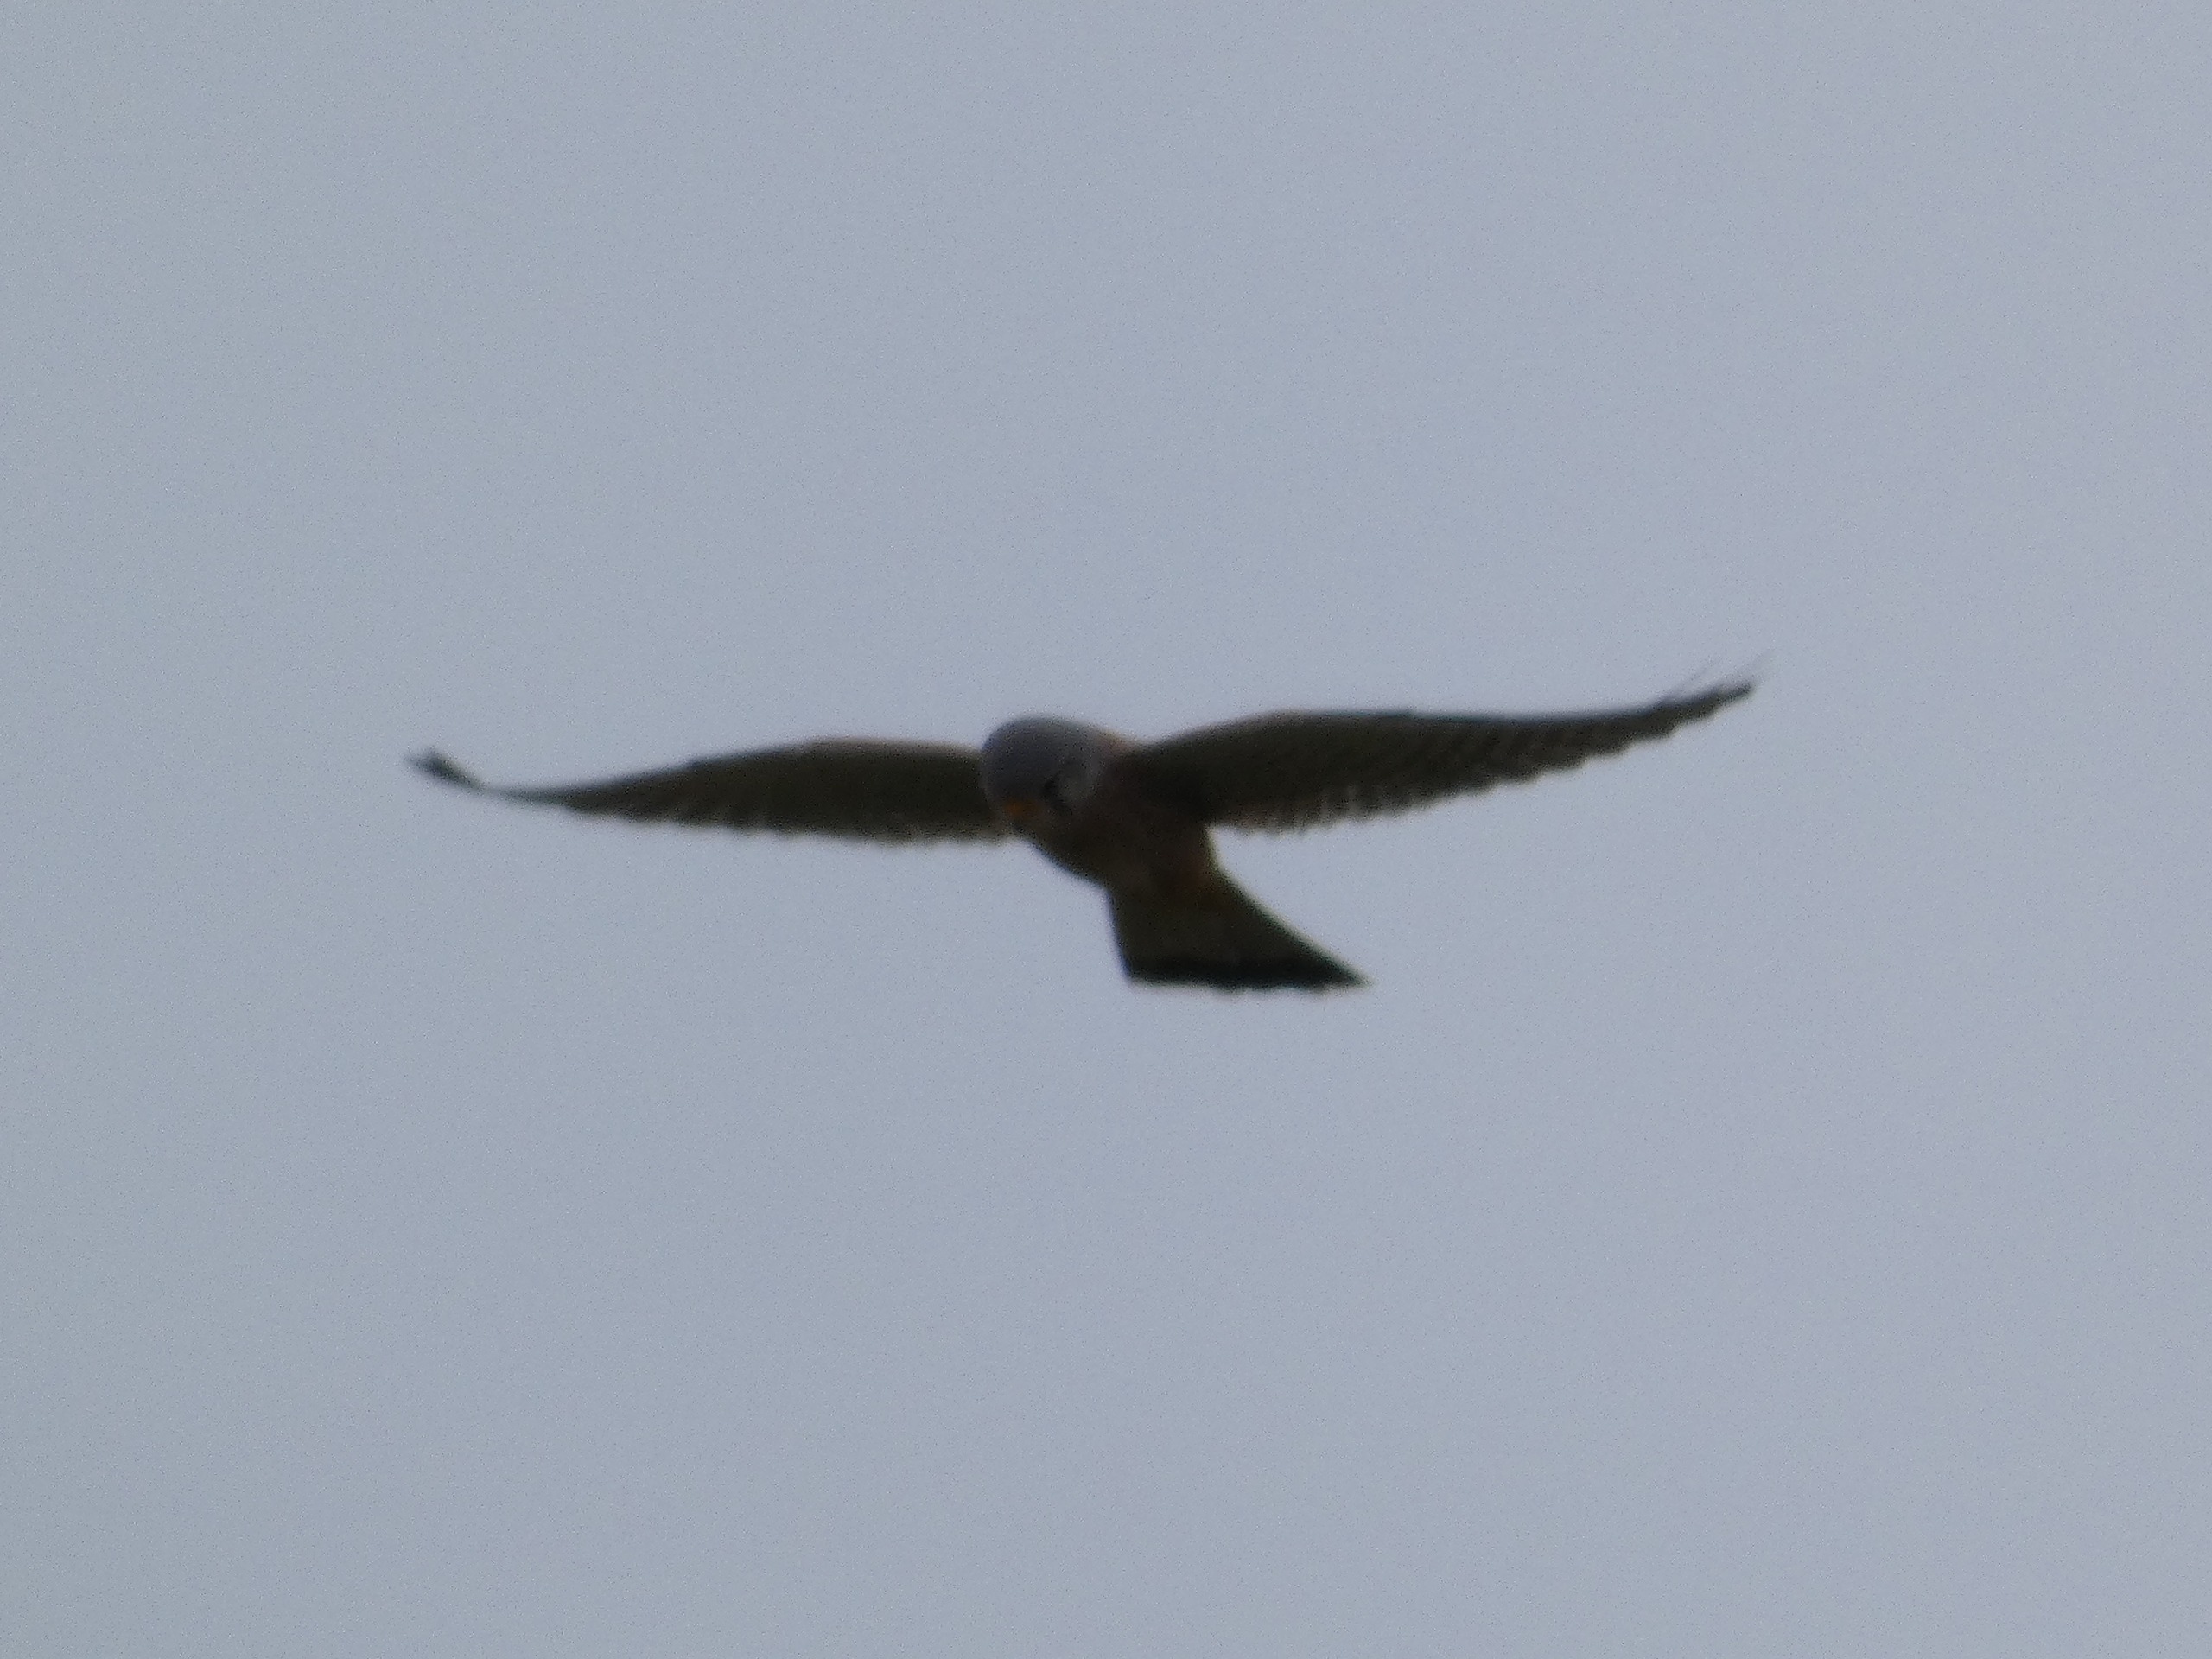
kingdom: Animalia
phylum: Chordata
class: Aves
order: Falconiformes
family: Falconidae
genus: Falco
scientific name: Falco tinnunculus
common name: Tårnfalk
